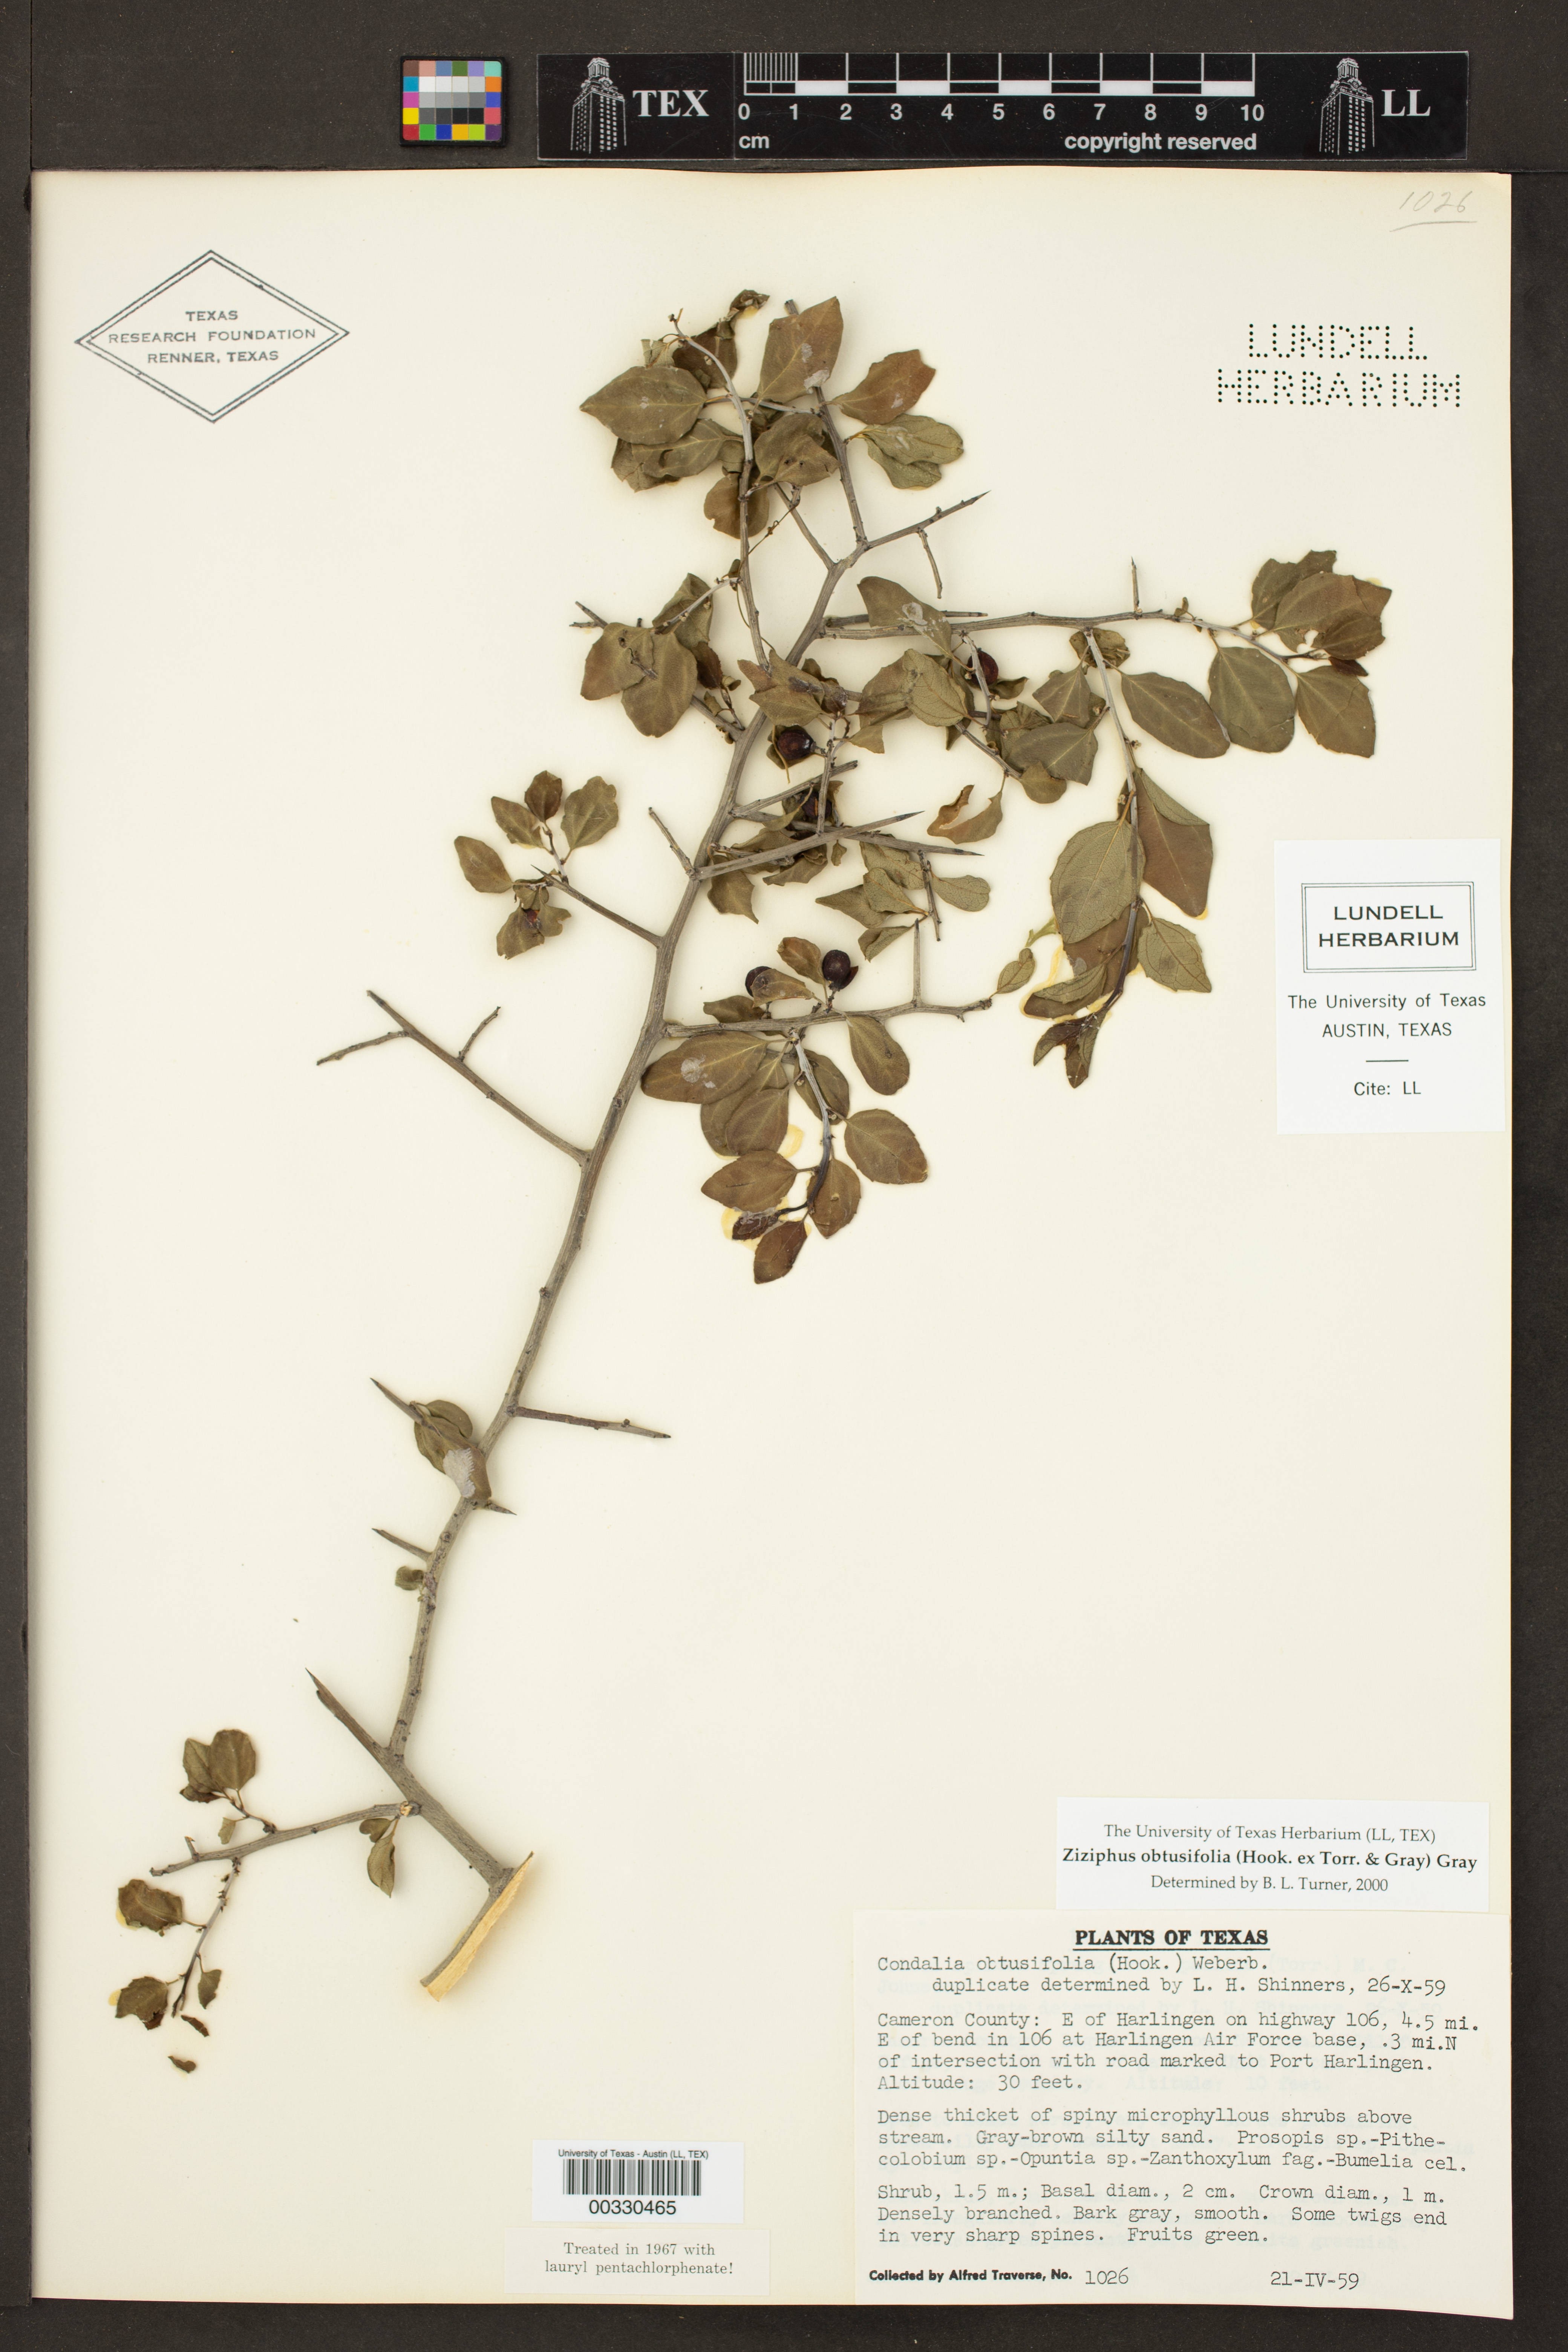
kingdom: Plantae
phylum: Tracheophyta
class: Magnoliopsida
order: Rosales
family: Rhamnaceae
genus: Sarcomphalus
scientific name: Sarcomphalus obtusifolius
